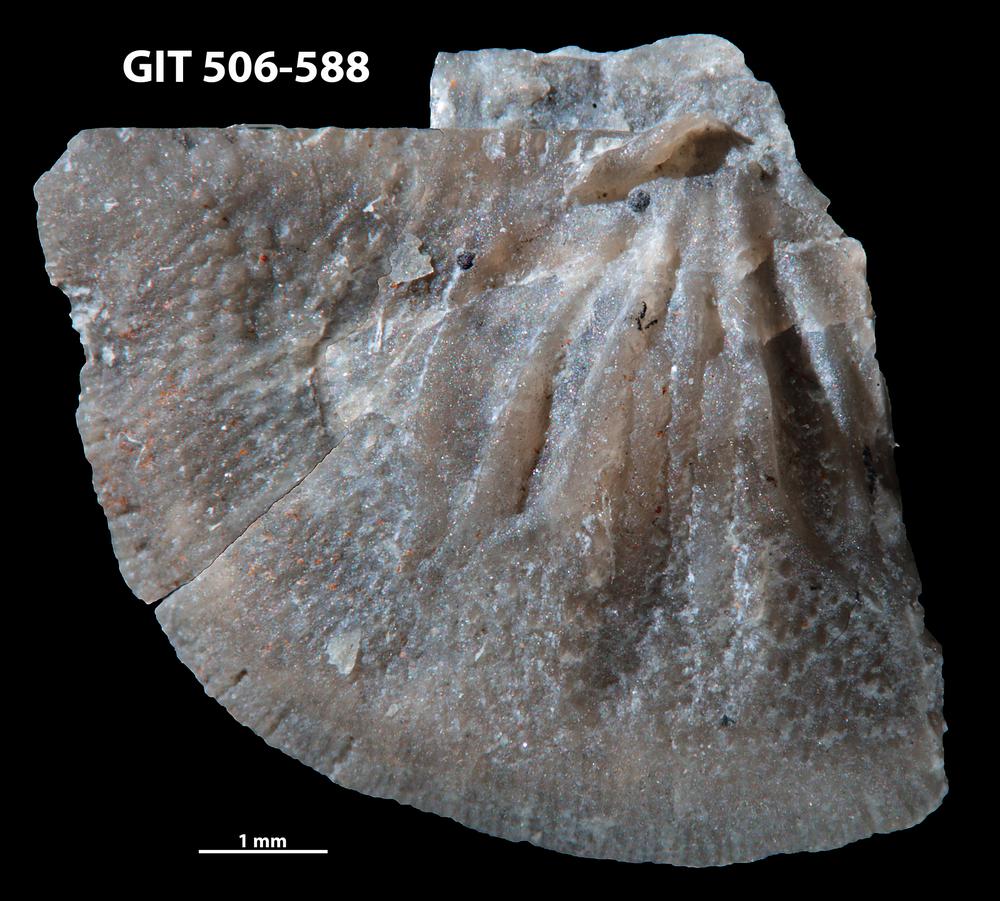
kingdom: Animalia
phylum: Brachiopoda
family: Oldhaminidae
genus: Eoplectodonta
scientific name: Eoplectodonta exceptionis
